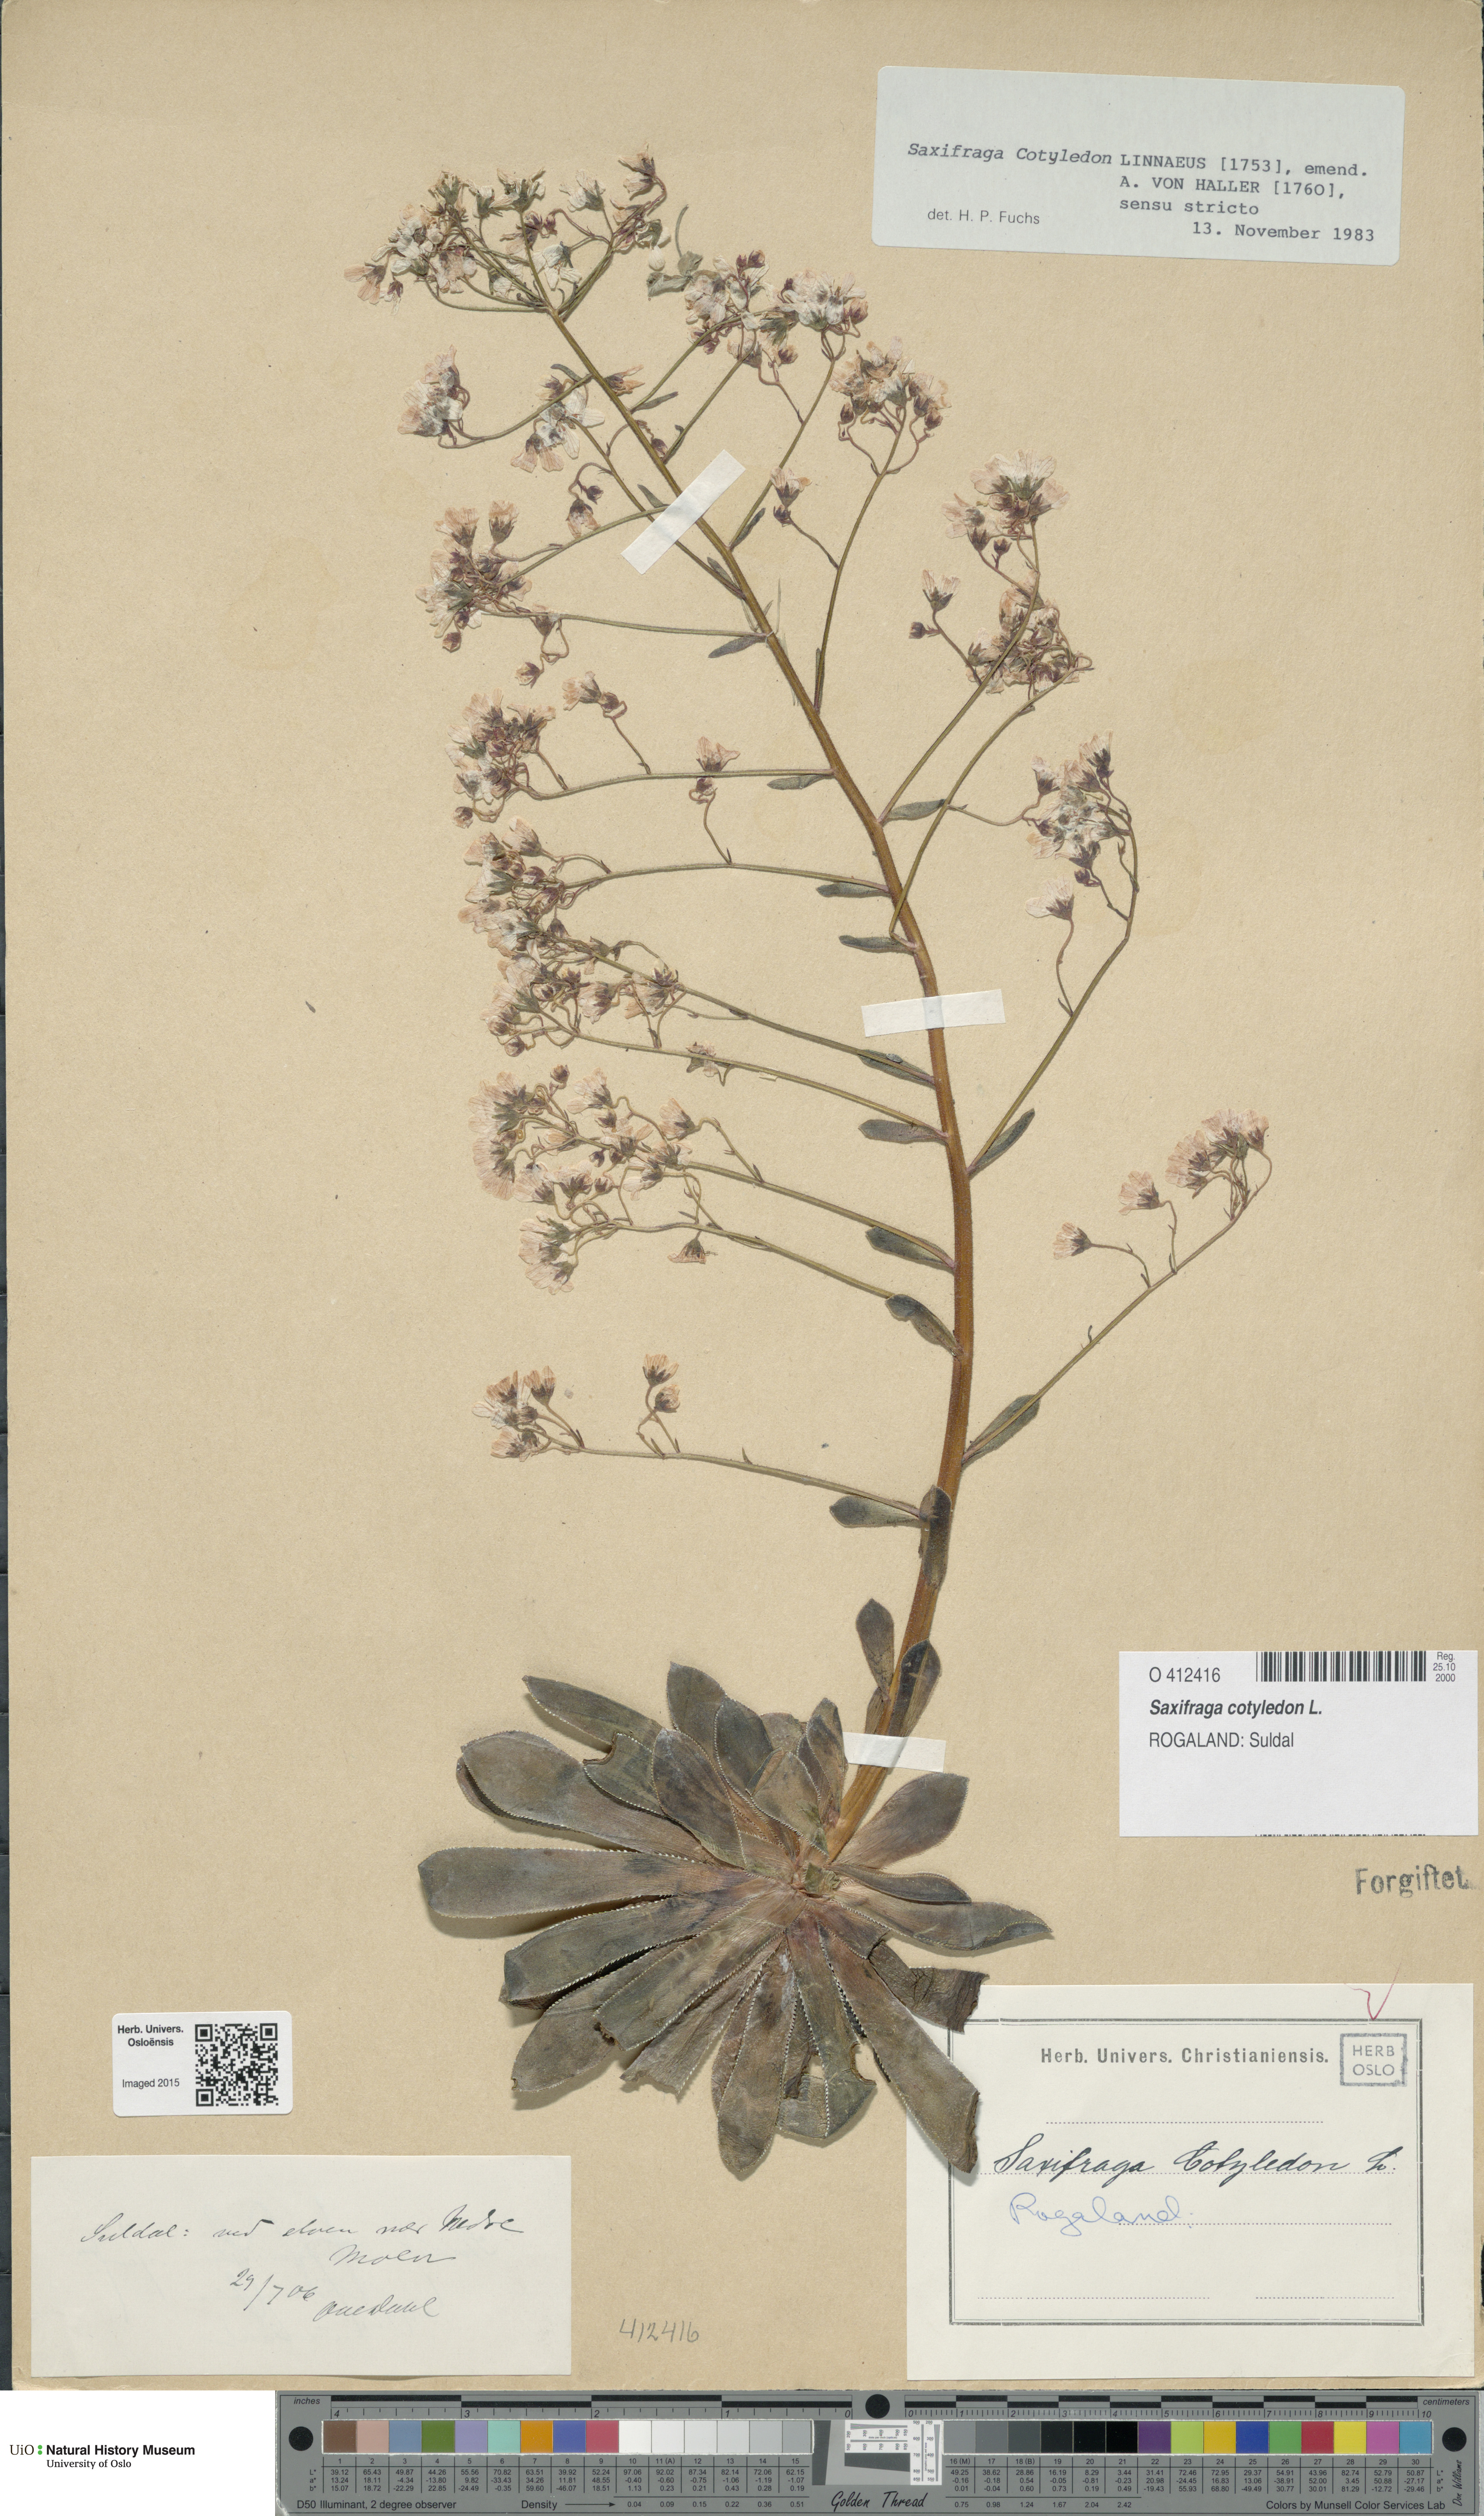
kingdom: Plantae
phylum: Tracheophyta
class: Magnoliopsida
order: Saxifragales
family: Saxifragaceae
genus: Saxifraga
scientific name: Saxifraga cotyledon
